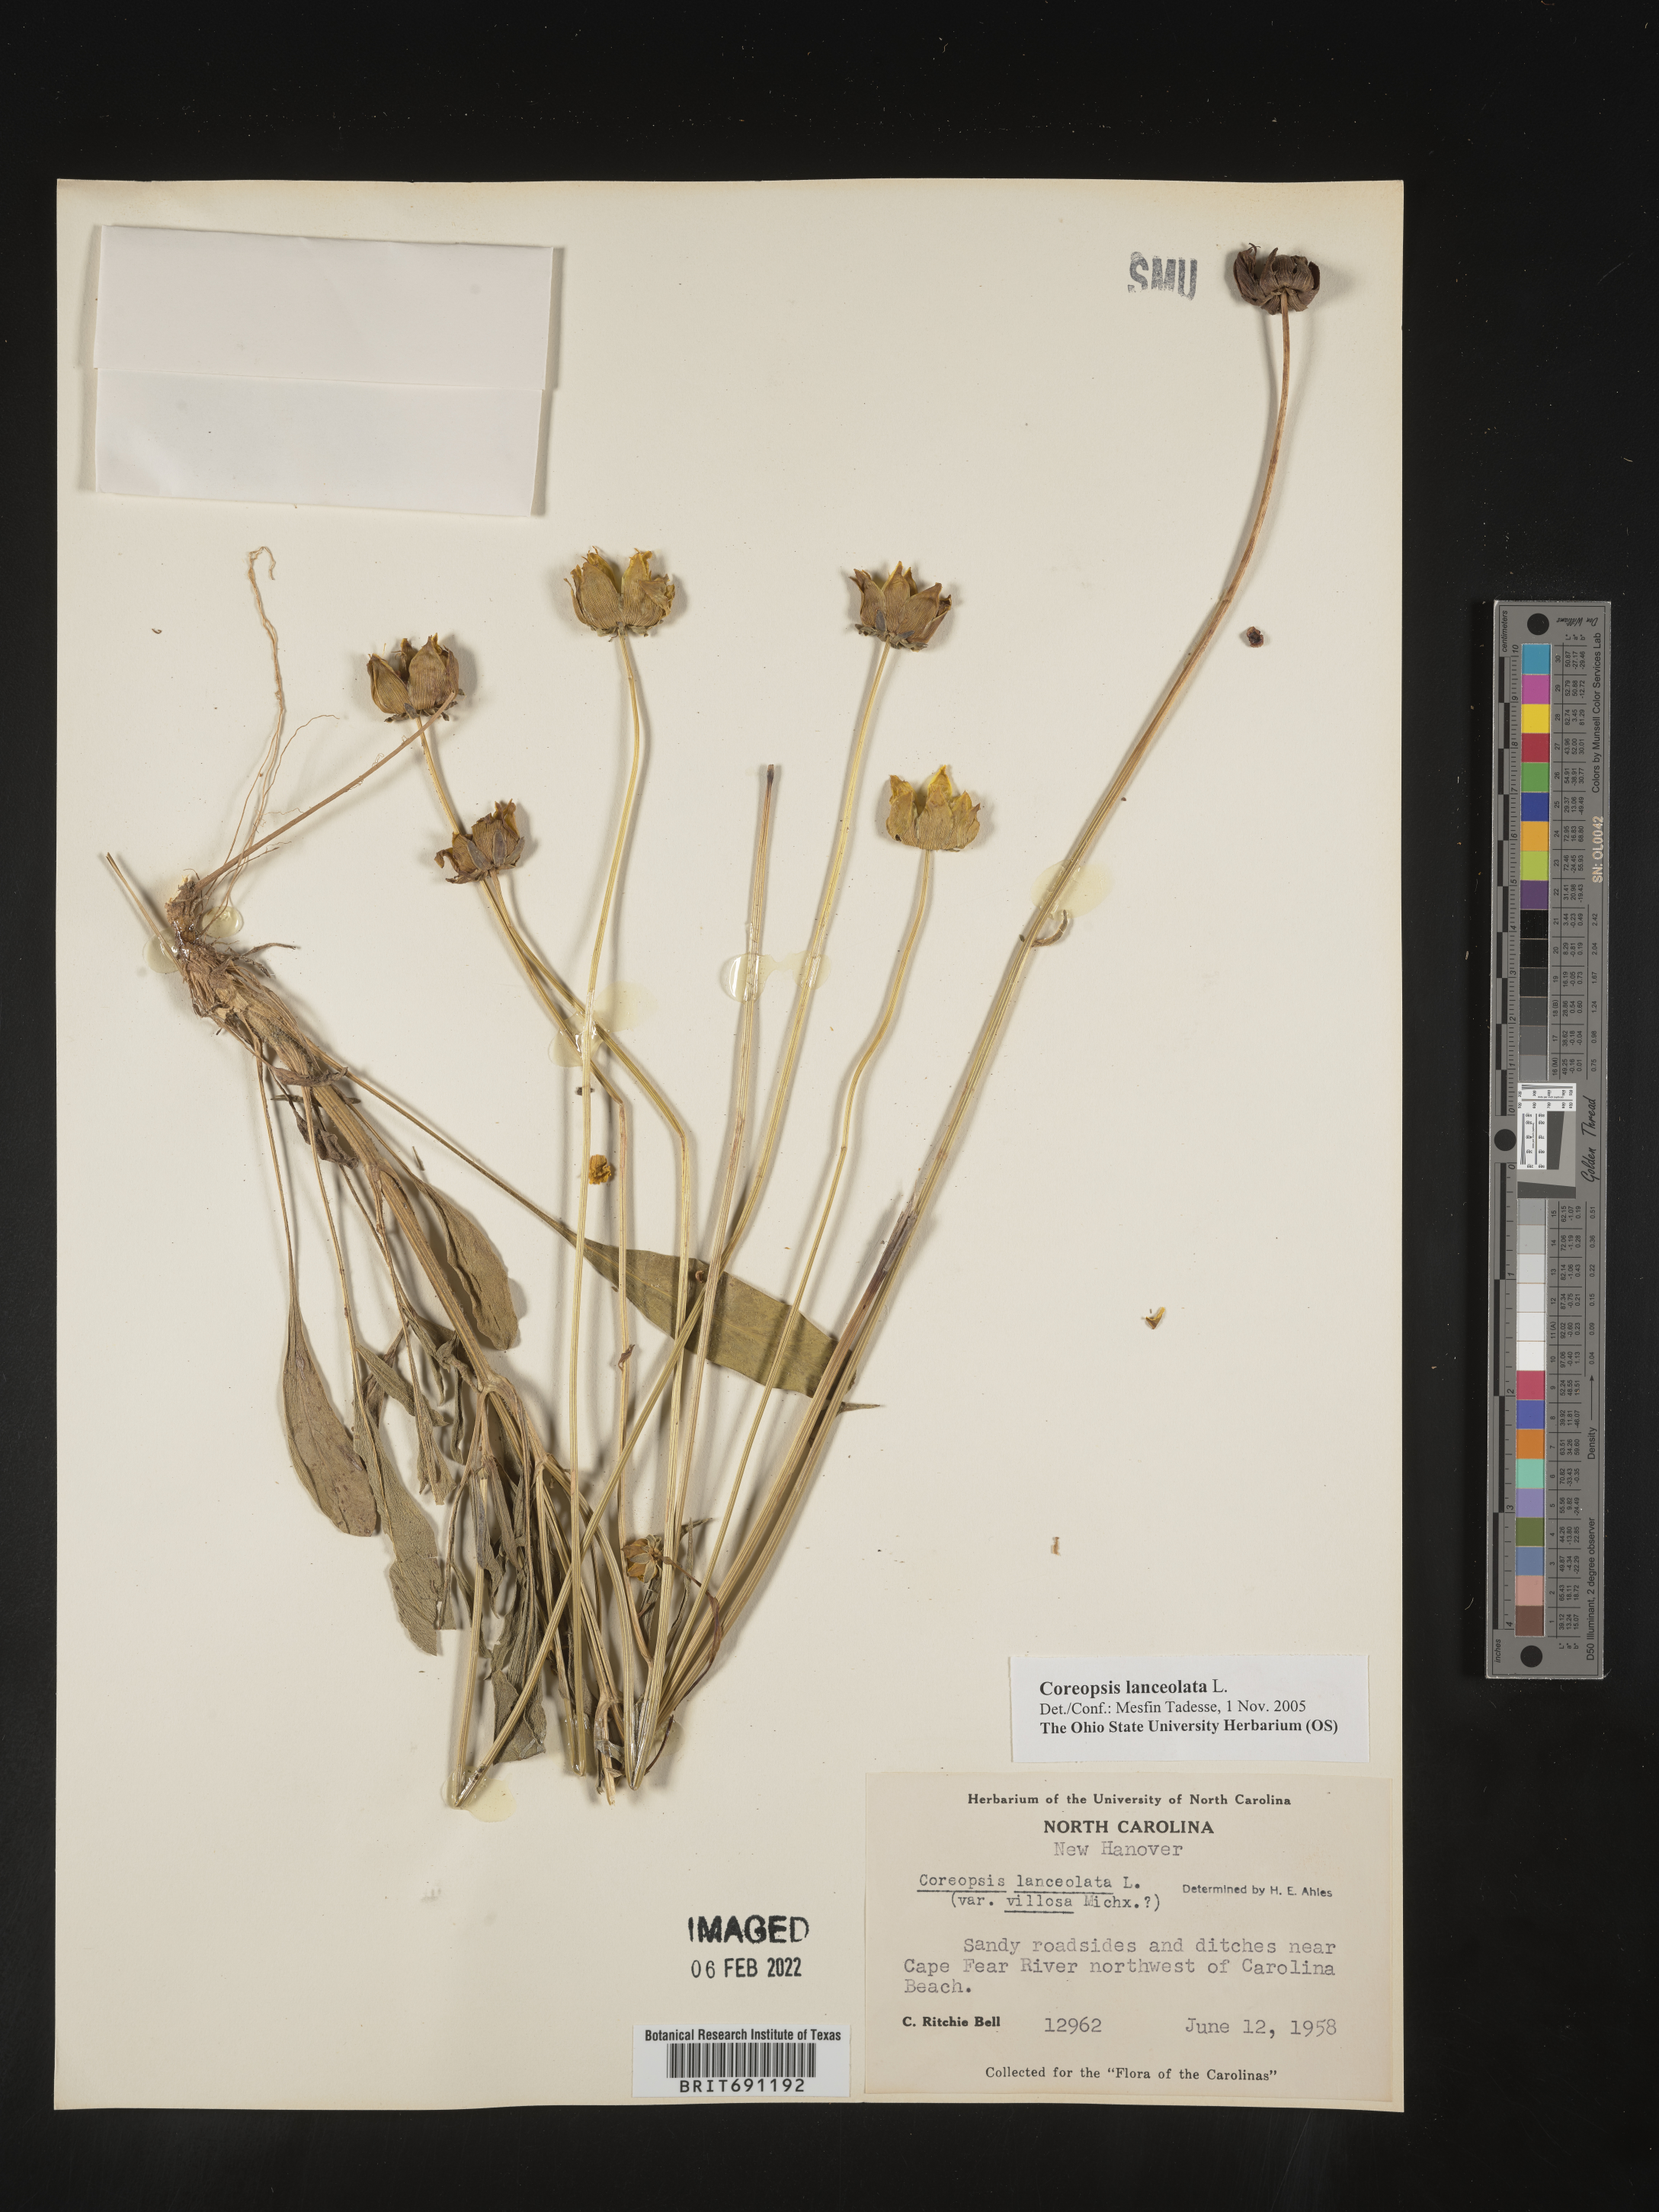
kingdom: Plantae
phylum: Tracheophyta
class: Magnoliopsida
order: Asterales
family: Asteraceae
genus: Coreopsis
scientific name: Coreopsis lanceolata
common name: Garden coreopsis
